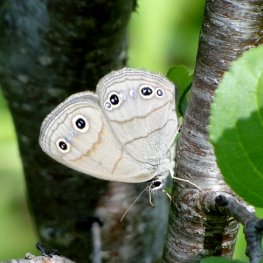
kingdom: Animalia
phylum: Arthropoda
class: Insecta
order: Lepidoptera
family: Nymphalidae
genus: Euptychia
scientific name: Euptychia cymela
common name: Little Wood Satyr
